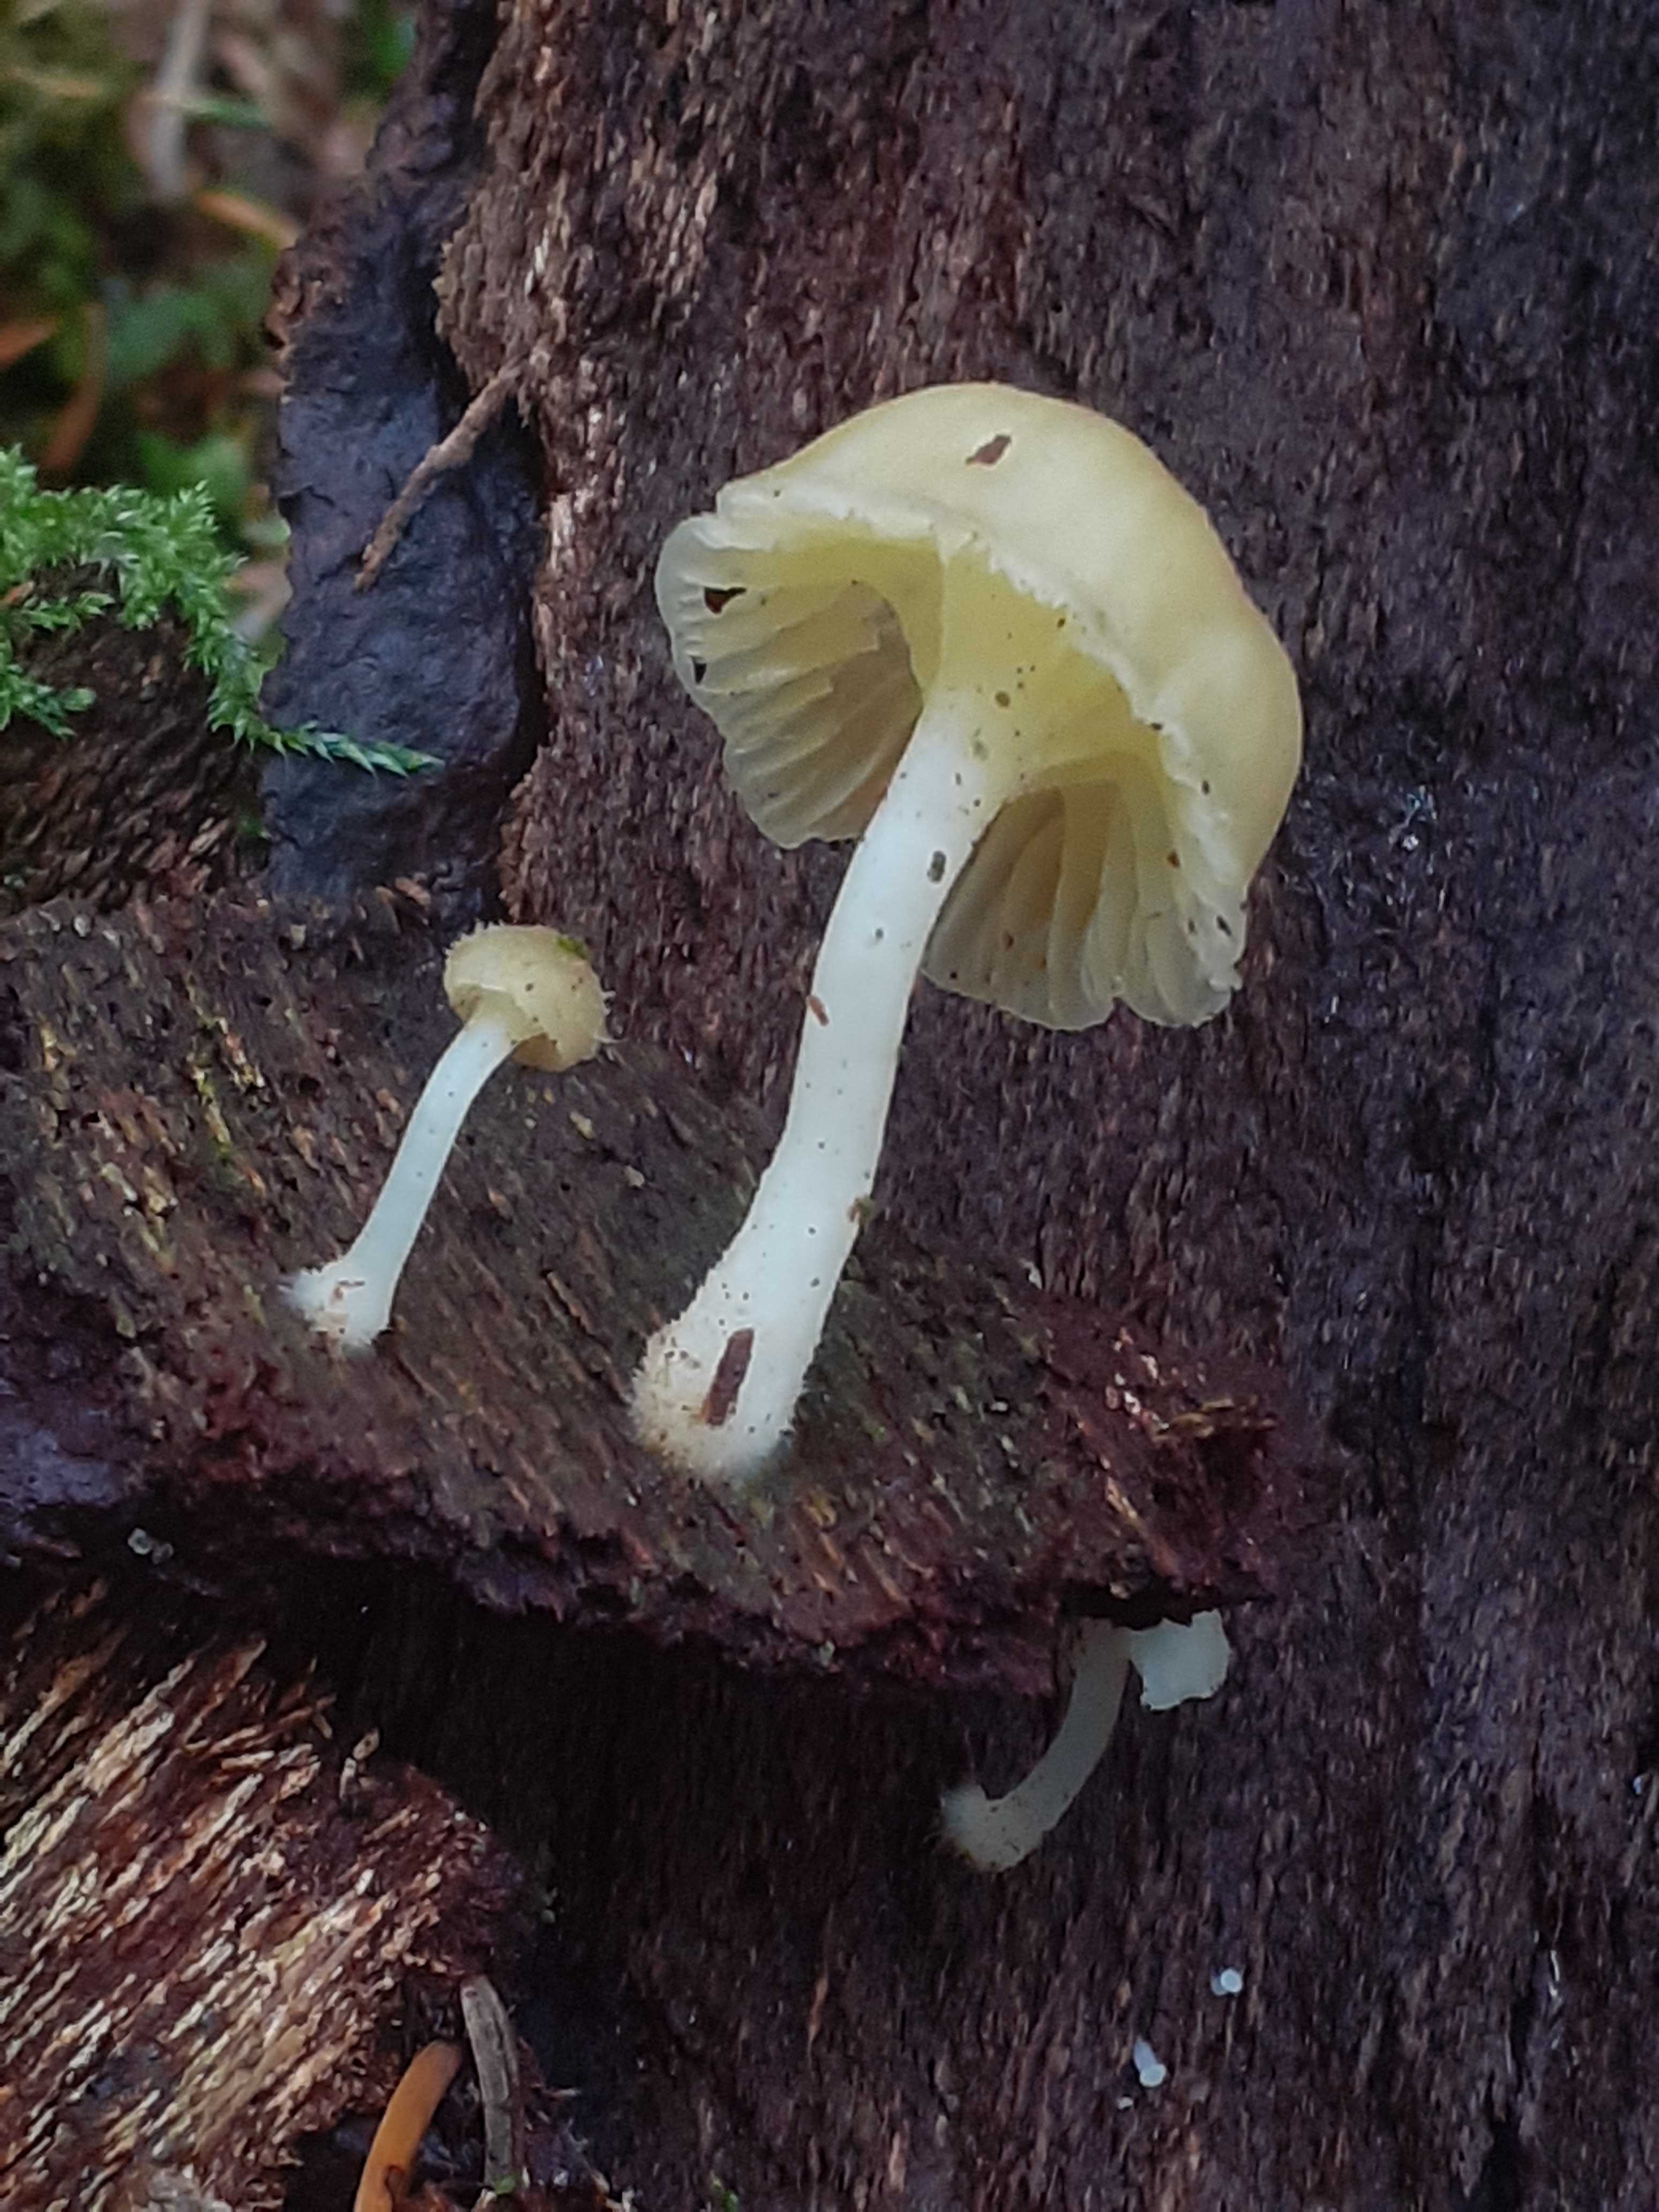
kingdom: Fungi
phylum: Basidiomycota
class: Agaricomycetes
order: Agaricales
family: Hygrophoraceae
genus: Chrysomphalina
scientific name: Chrysomphalina grossula
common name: stød-gyldenblad
